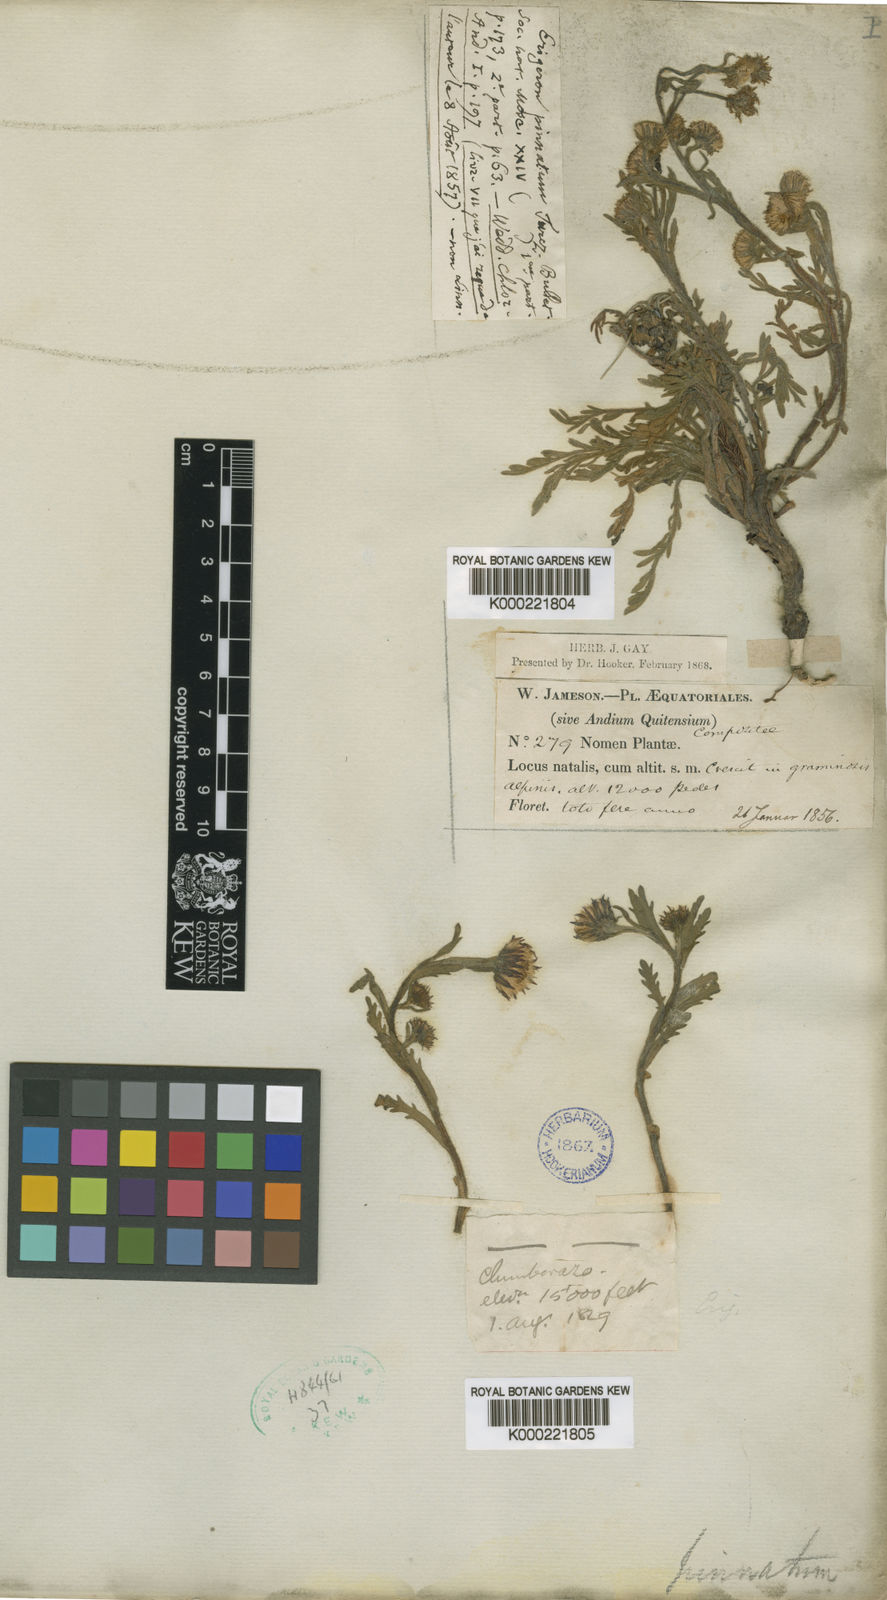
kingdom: Plantae
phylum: Tracheophyta
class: Magnoliopsida
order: Asterales
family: Asteraceae
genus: Erigeron
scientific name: Erigeron cardaminifolius
